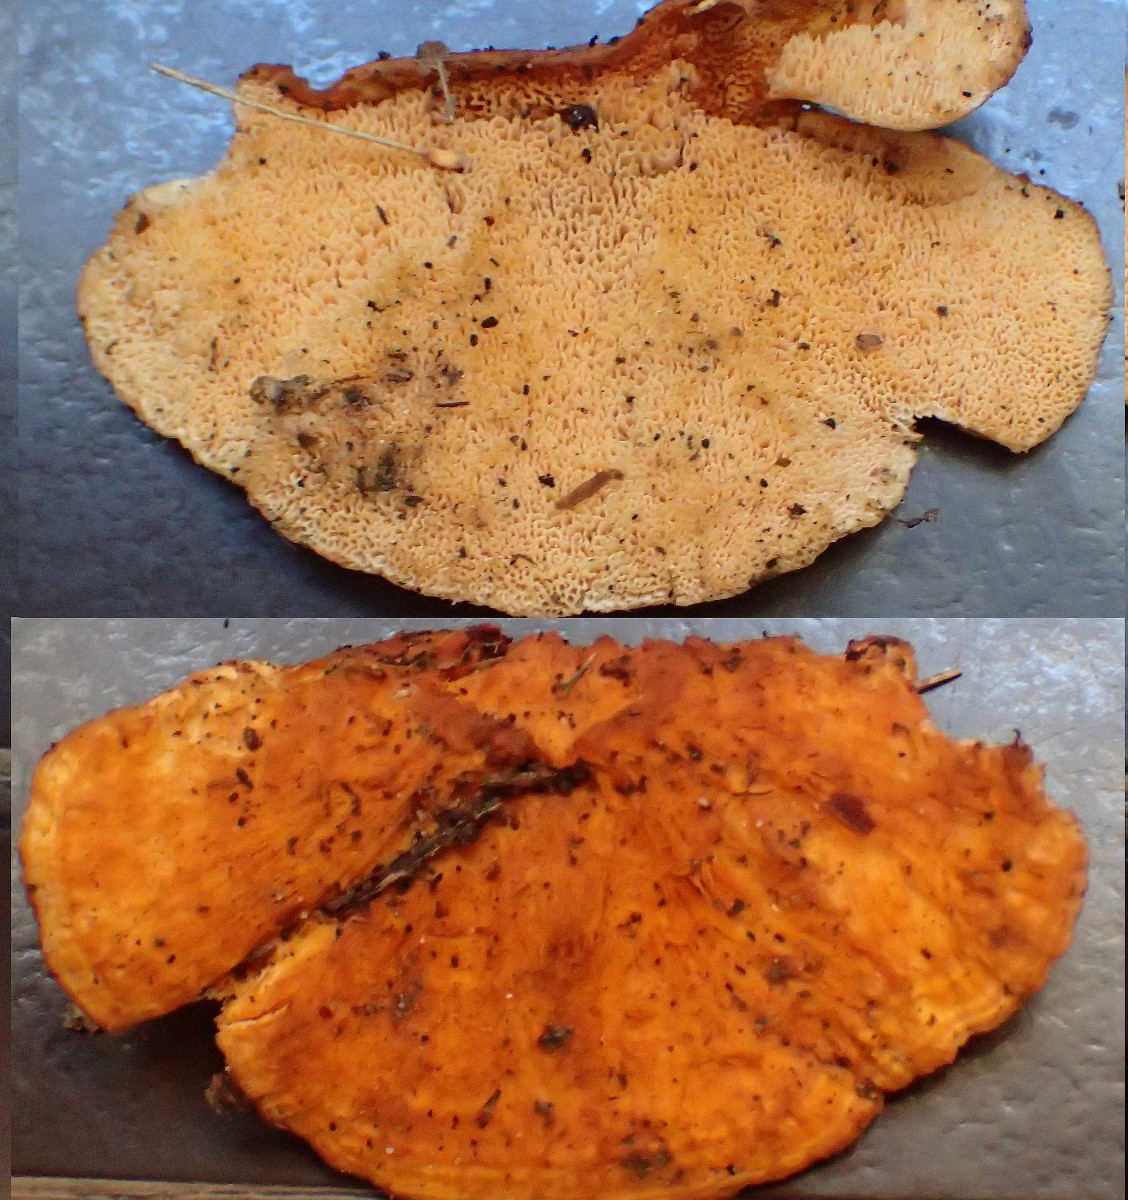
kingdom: Fungi
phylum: Basidiomycota
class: Agaricomycetes
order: Polyporales
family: Pycnoporellaceae
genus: Pycnoporellus
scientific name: Pycnoporellus fulgens
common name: flammeporesvamp
